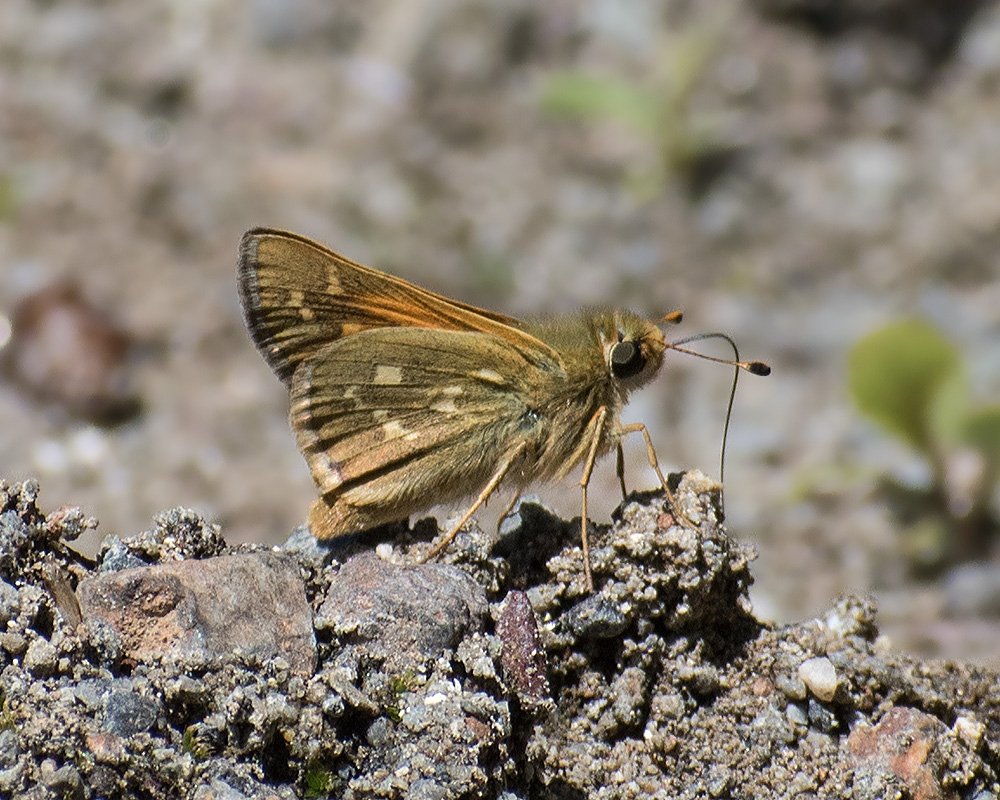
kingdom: Animalia
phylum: Arthropoda
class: Insecta
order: Lepidoptera
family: Hesperiidae
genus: Hesperia
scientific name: Hesperia comma
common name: Western Branded Skipper
